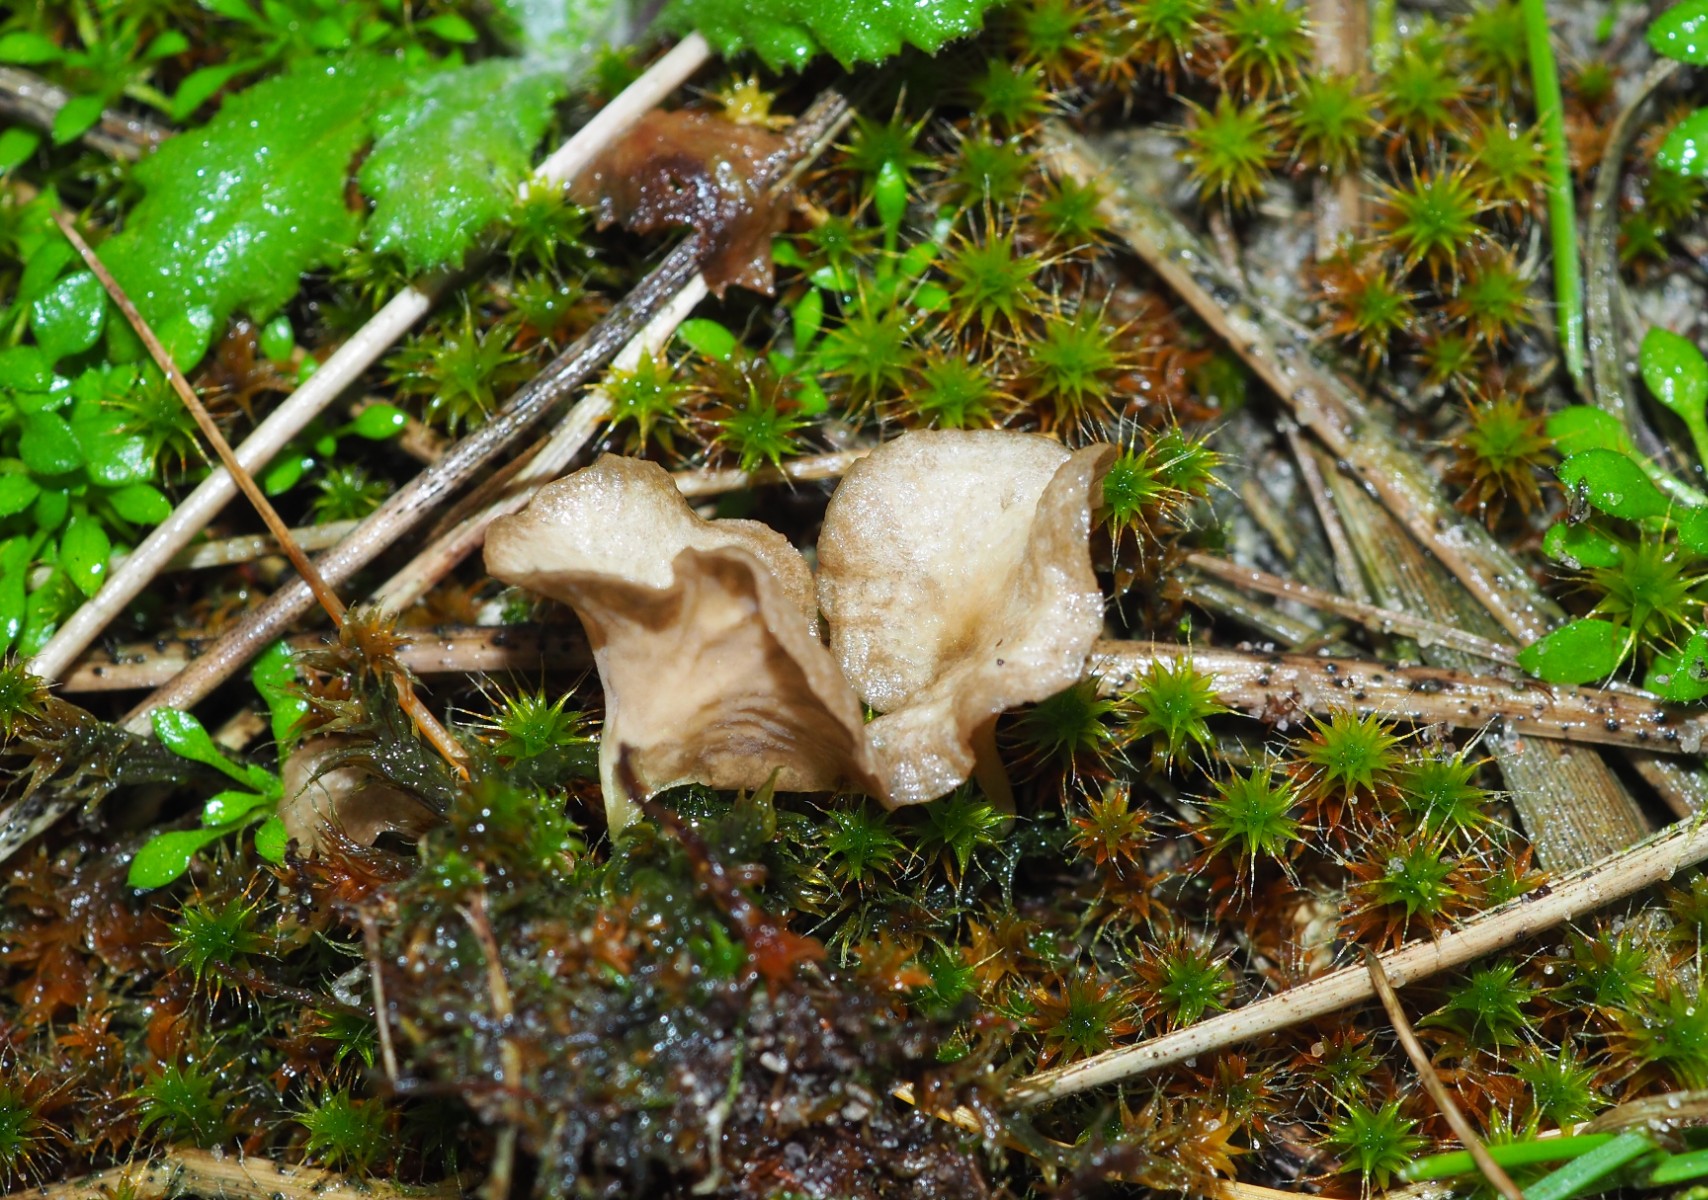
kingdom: Fungi
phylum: Basidiomycota
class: Agaricomycetes
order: Agaricales
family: Hygrophoraceae
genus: Arrhenia
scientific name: Arrhenia spathulata
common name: skæv fontænehat
